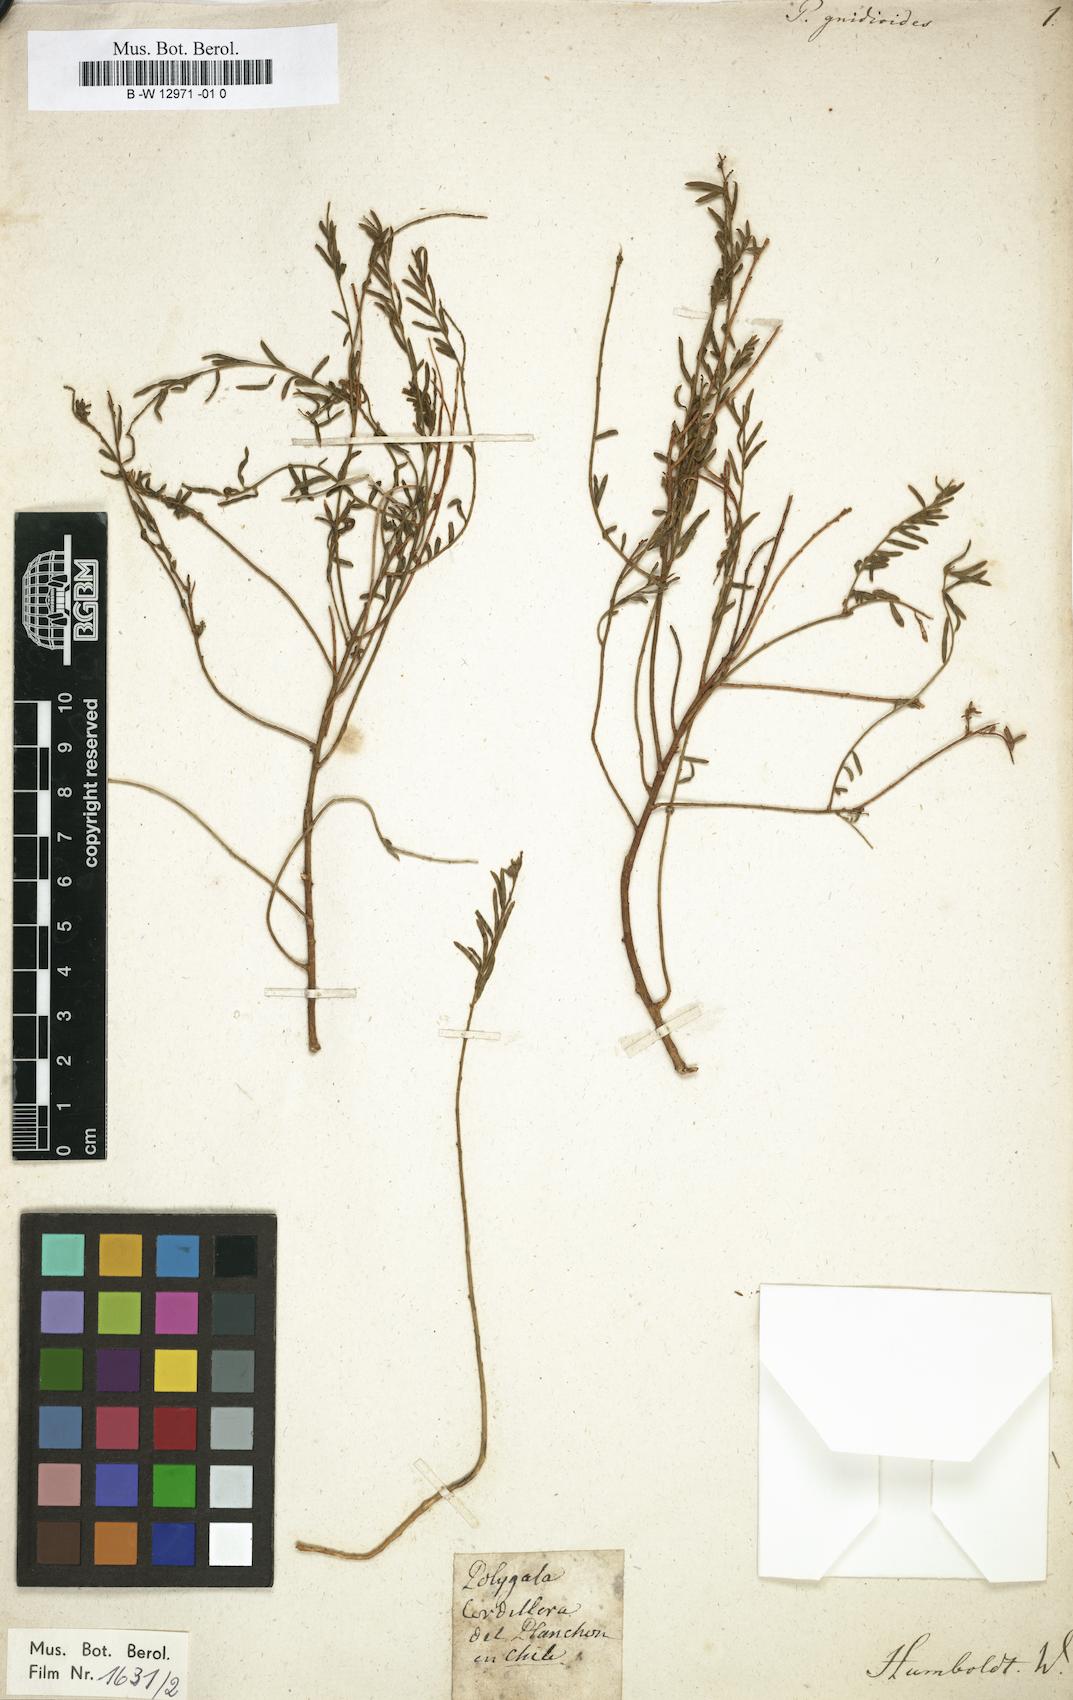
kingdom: Plantae
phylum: Tracheophyta
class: Magnoliopsida
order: Fabales
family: Polygalaceae
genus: Polygala
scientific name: Polygala gnidioides
